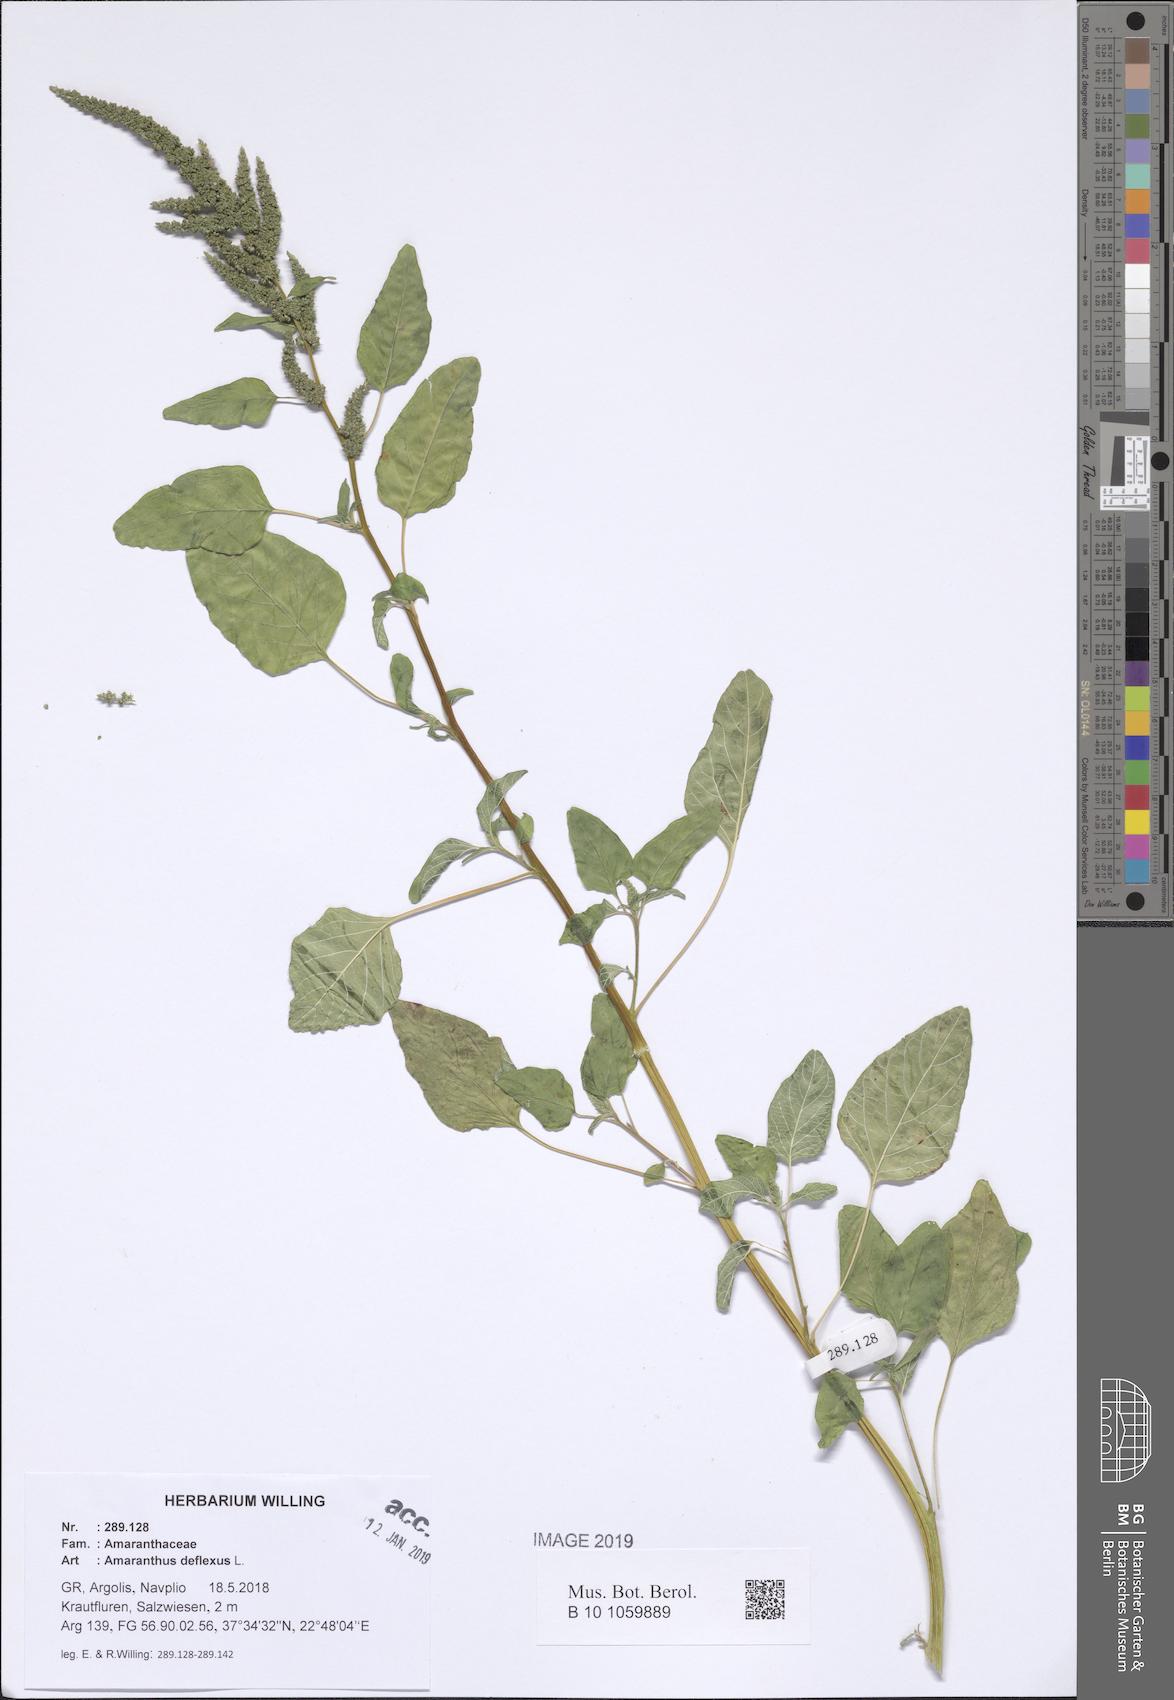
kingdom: Plantae
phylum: Tracheophyta
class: Magnoliopsida
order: Caryophyllales
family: Amaranthaceae
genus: Amaranthus
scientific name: Amaranthus deflexus
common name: Perennial pigweed
